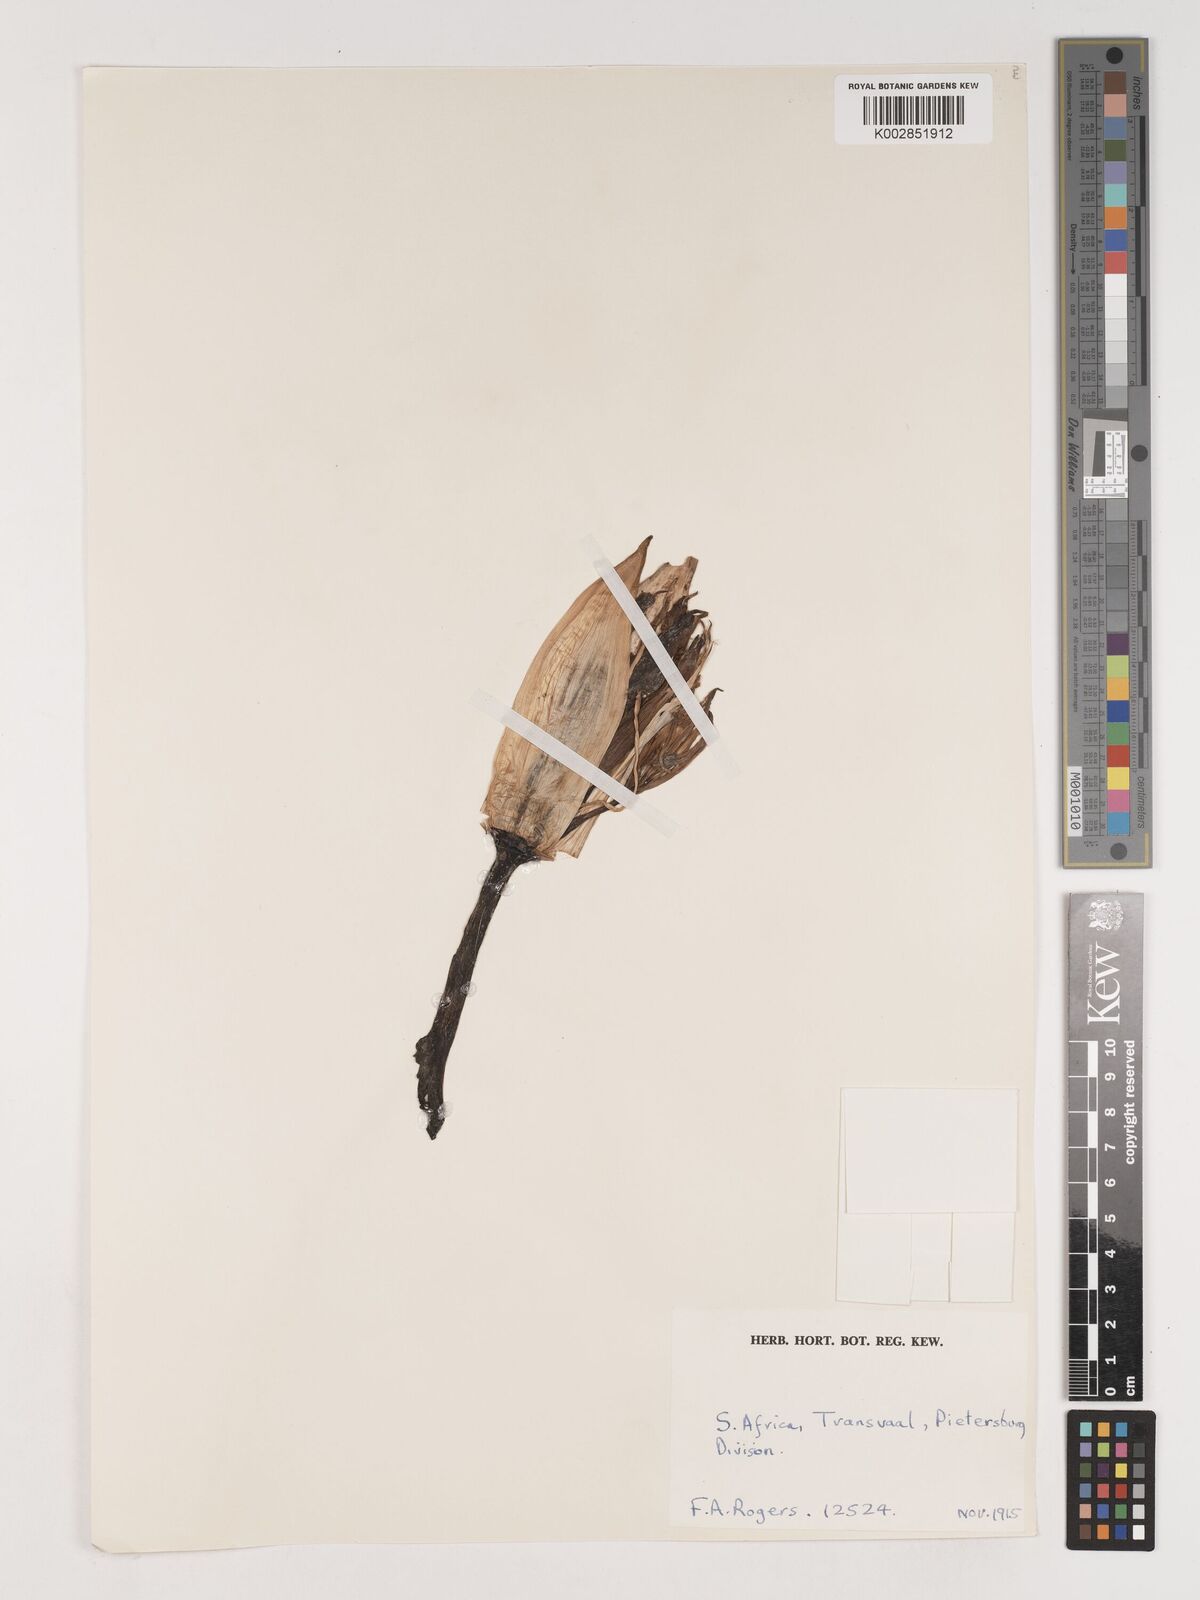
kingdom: Plantae
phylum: Tracheophyta
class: Liliopsida
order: Asparagales
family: Amaryllidaceae
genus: Crinum
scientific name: Crinum
